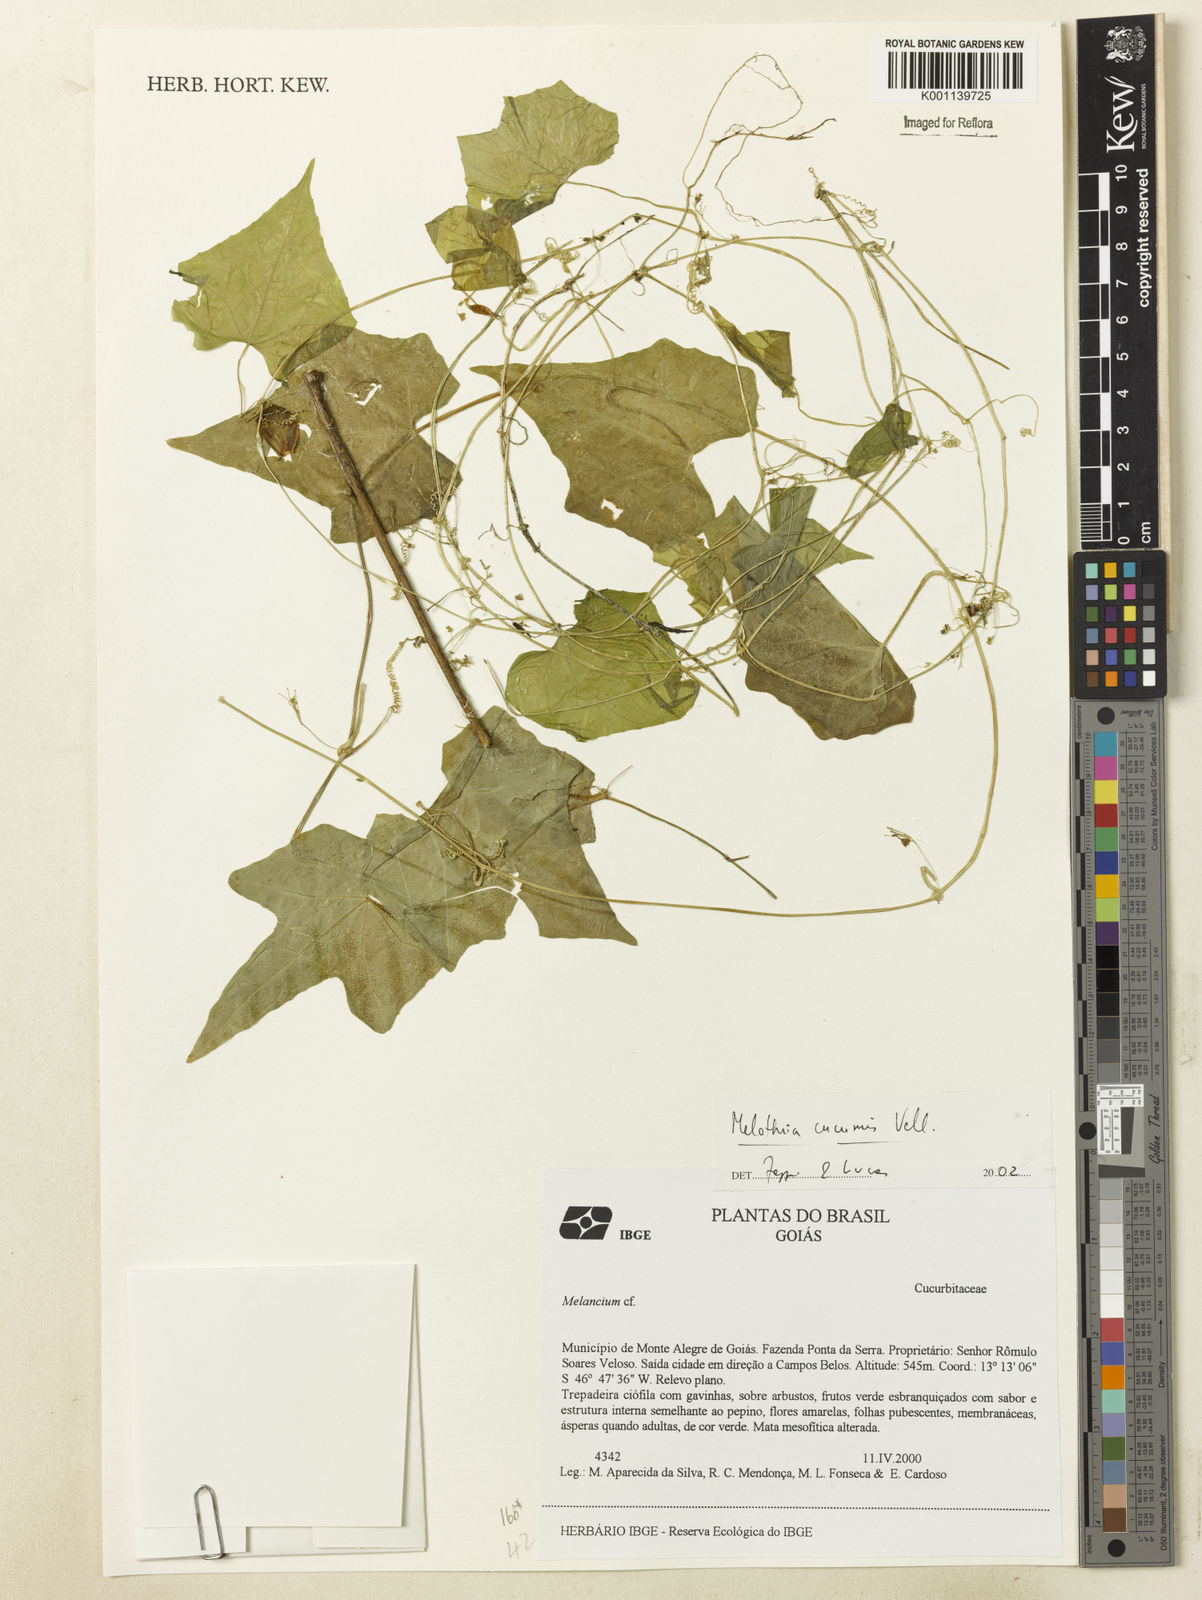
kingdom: Plantae
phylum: Tracheophyta
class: Magnoliopsida
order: Cucurbitales
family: Cucurbitaceae
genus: Melothria
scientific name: Melothria cucumis
